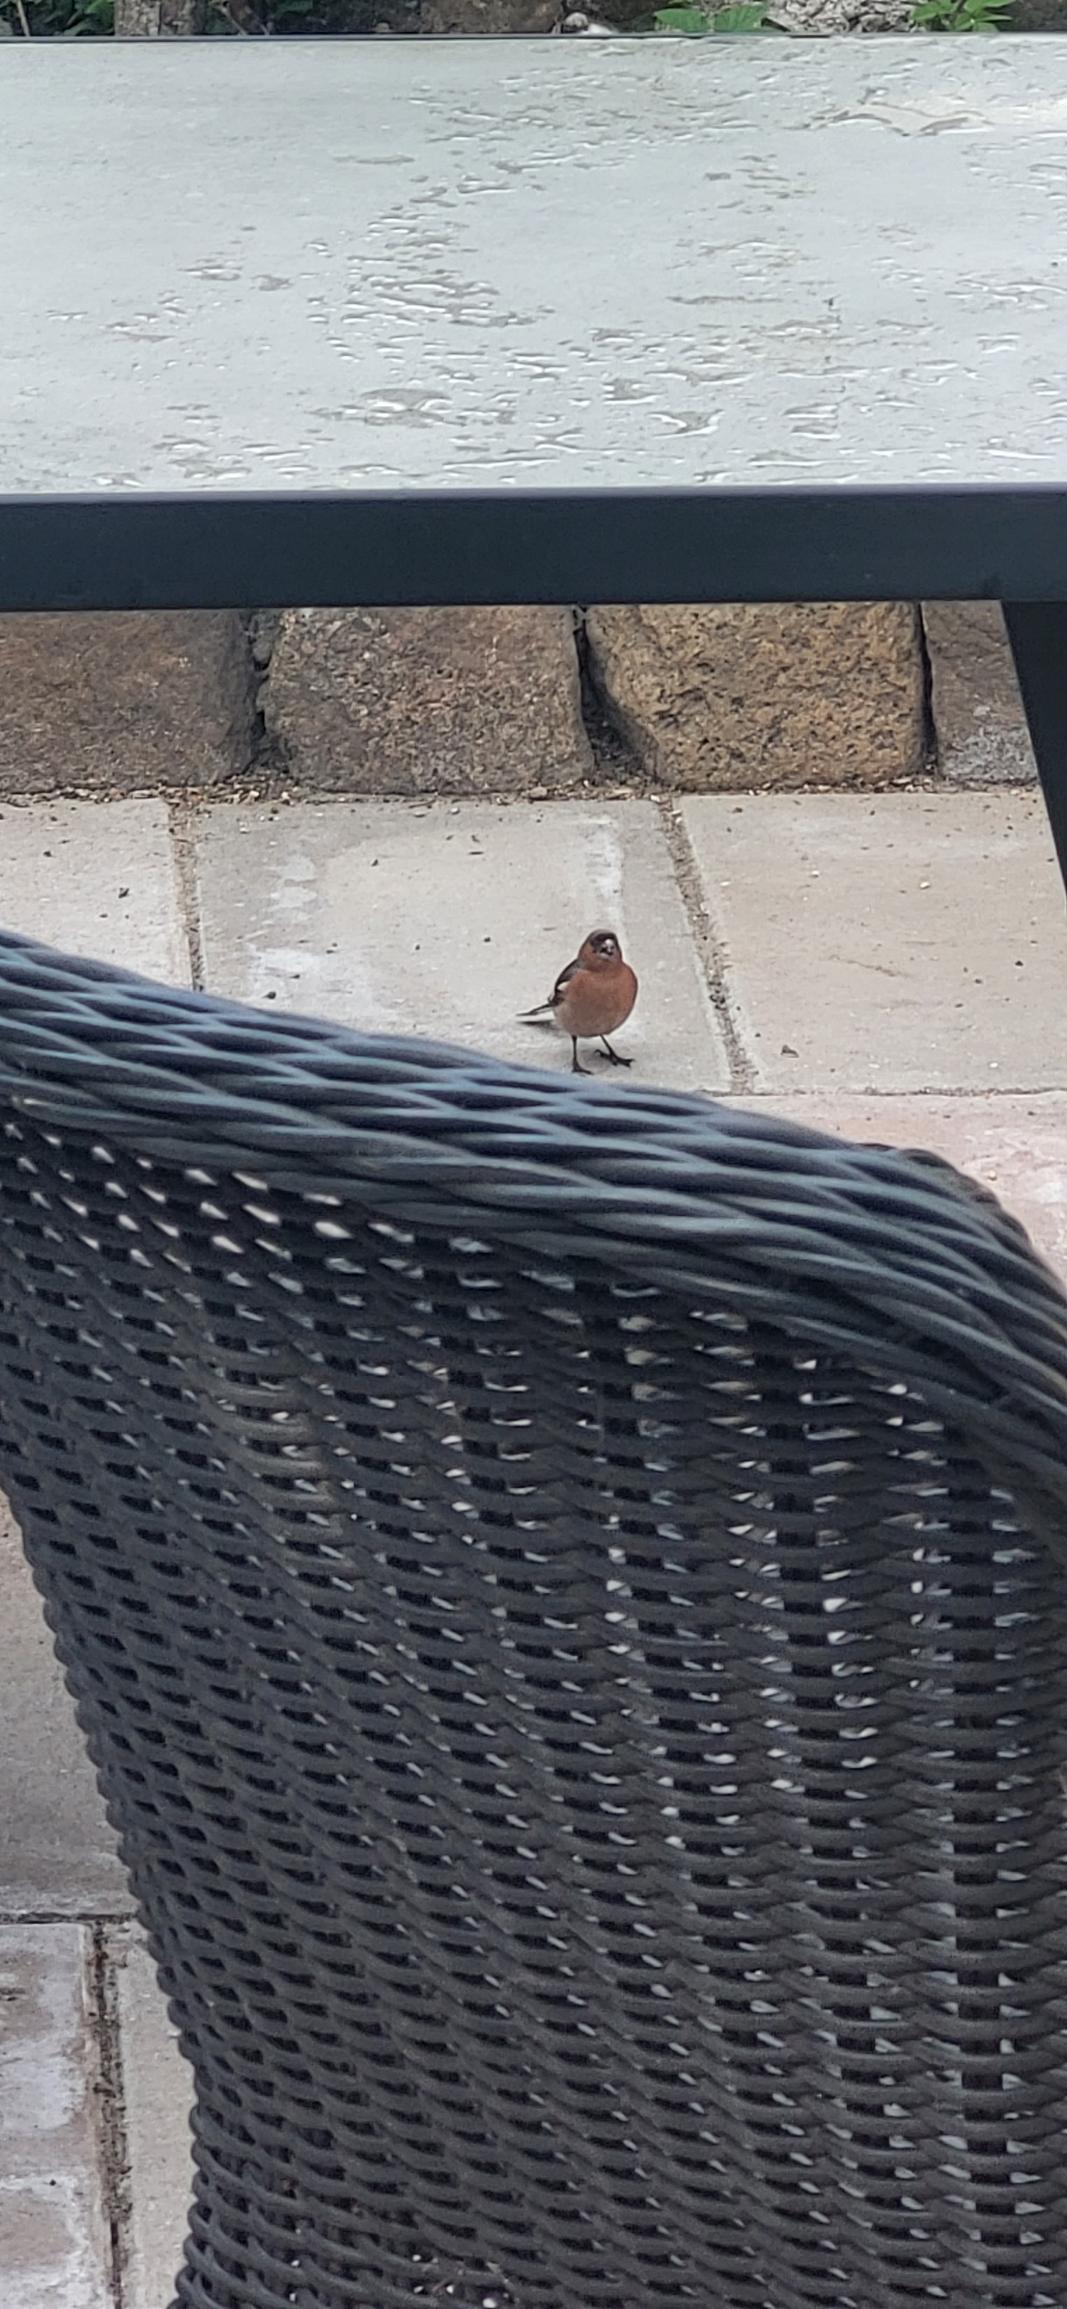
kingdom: Animalia
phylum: Chordata
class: Aves
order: Passeriformes
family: Fringillidae
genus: Fringilla
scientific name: Fringilla coelebs
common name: Bogfinke
